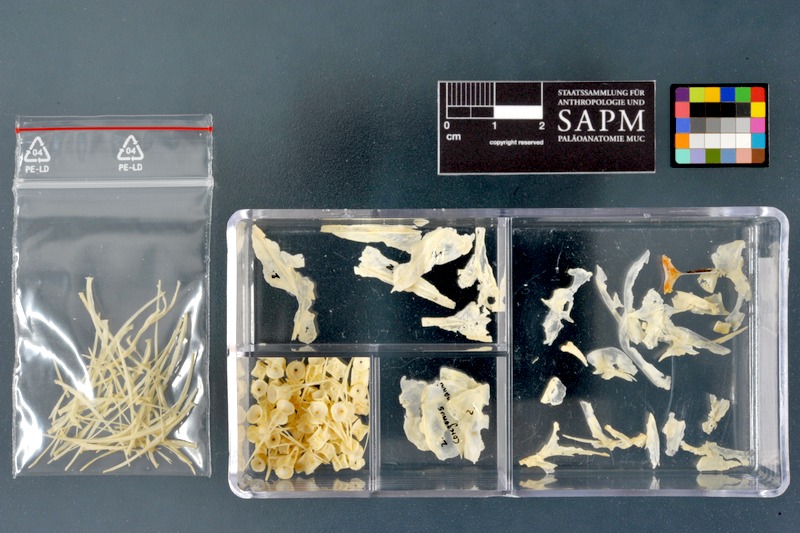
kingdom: Animalia
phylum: Chordata
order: Salmoniformes
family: Salmonidae
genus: Coregonus
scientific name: Coregonus wartmanni
